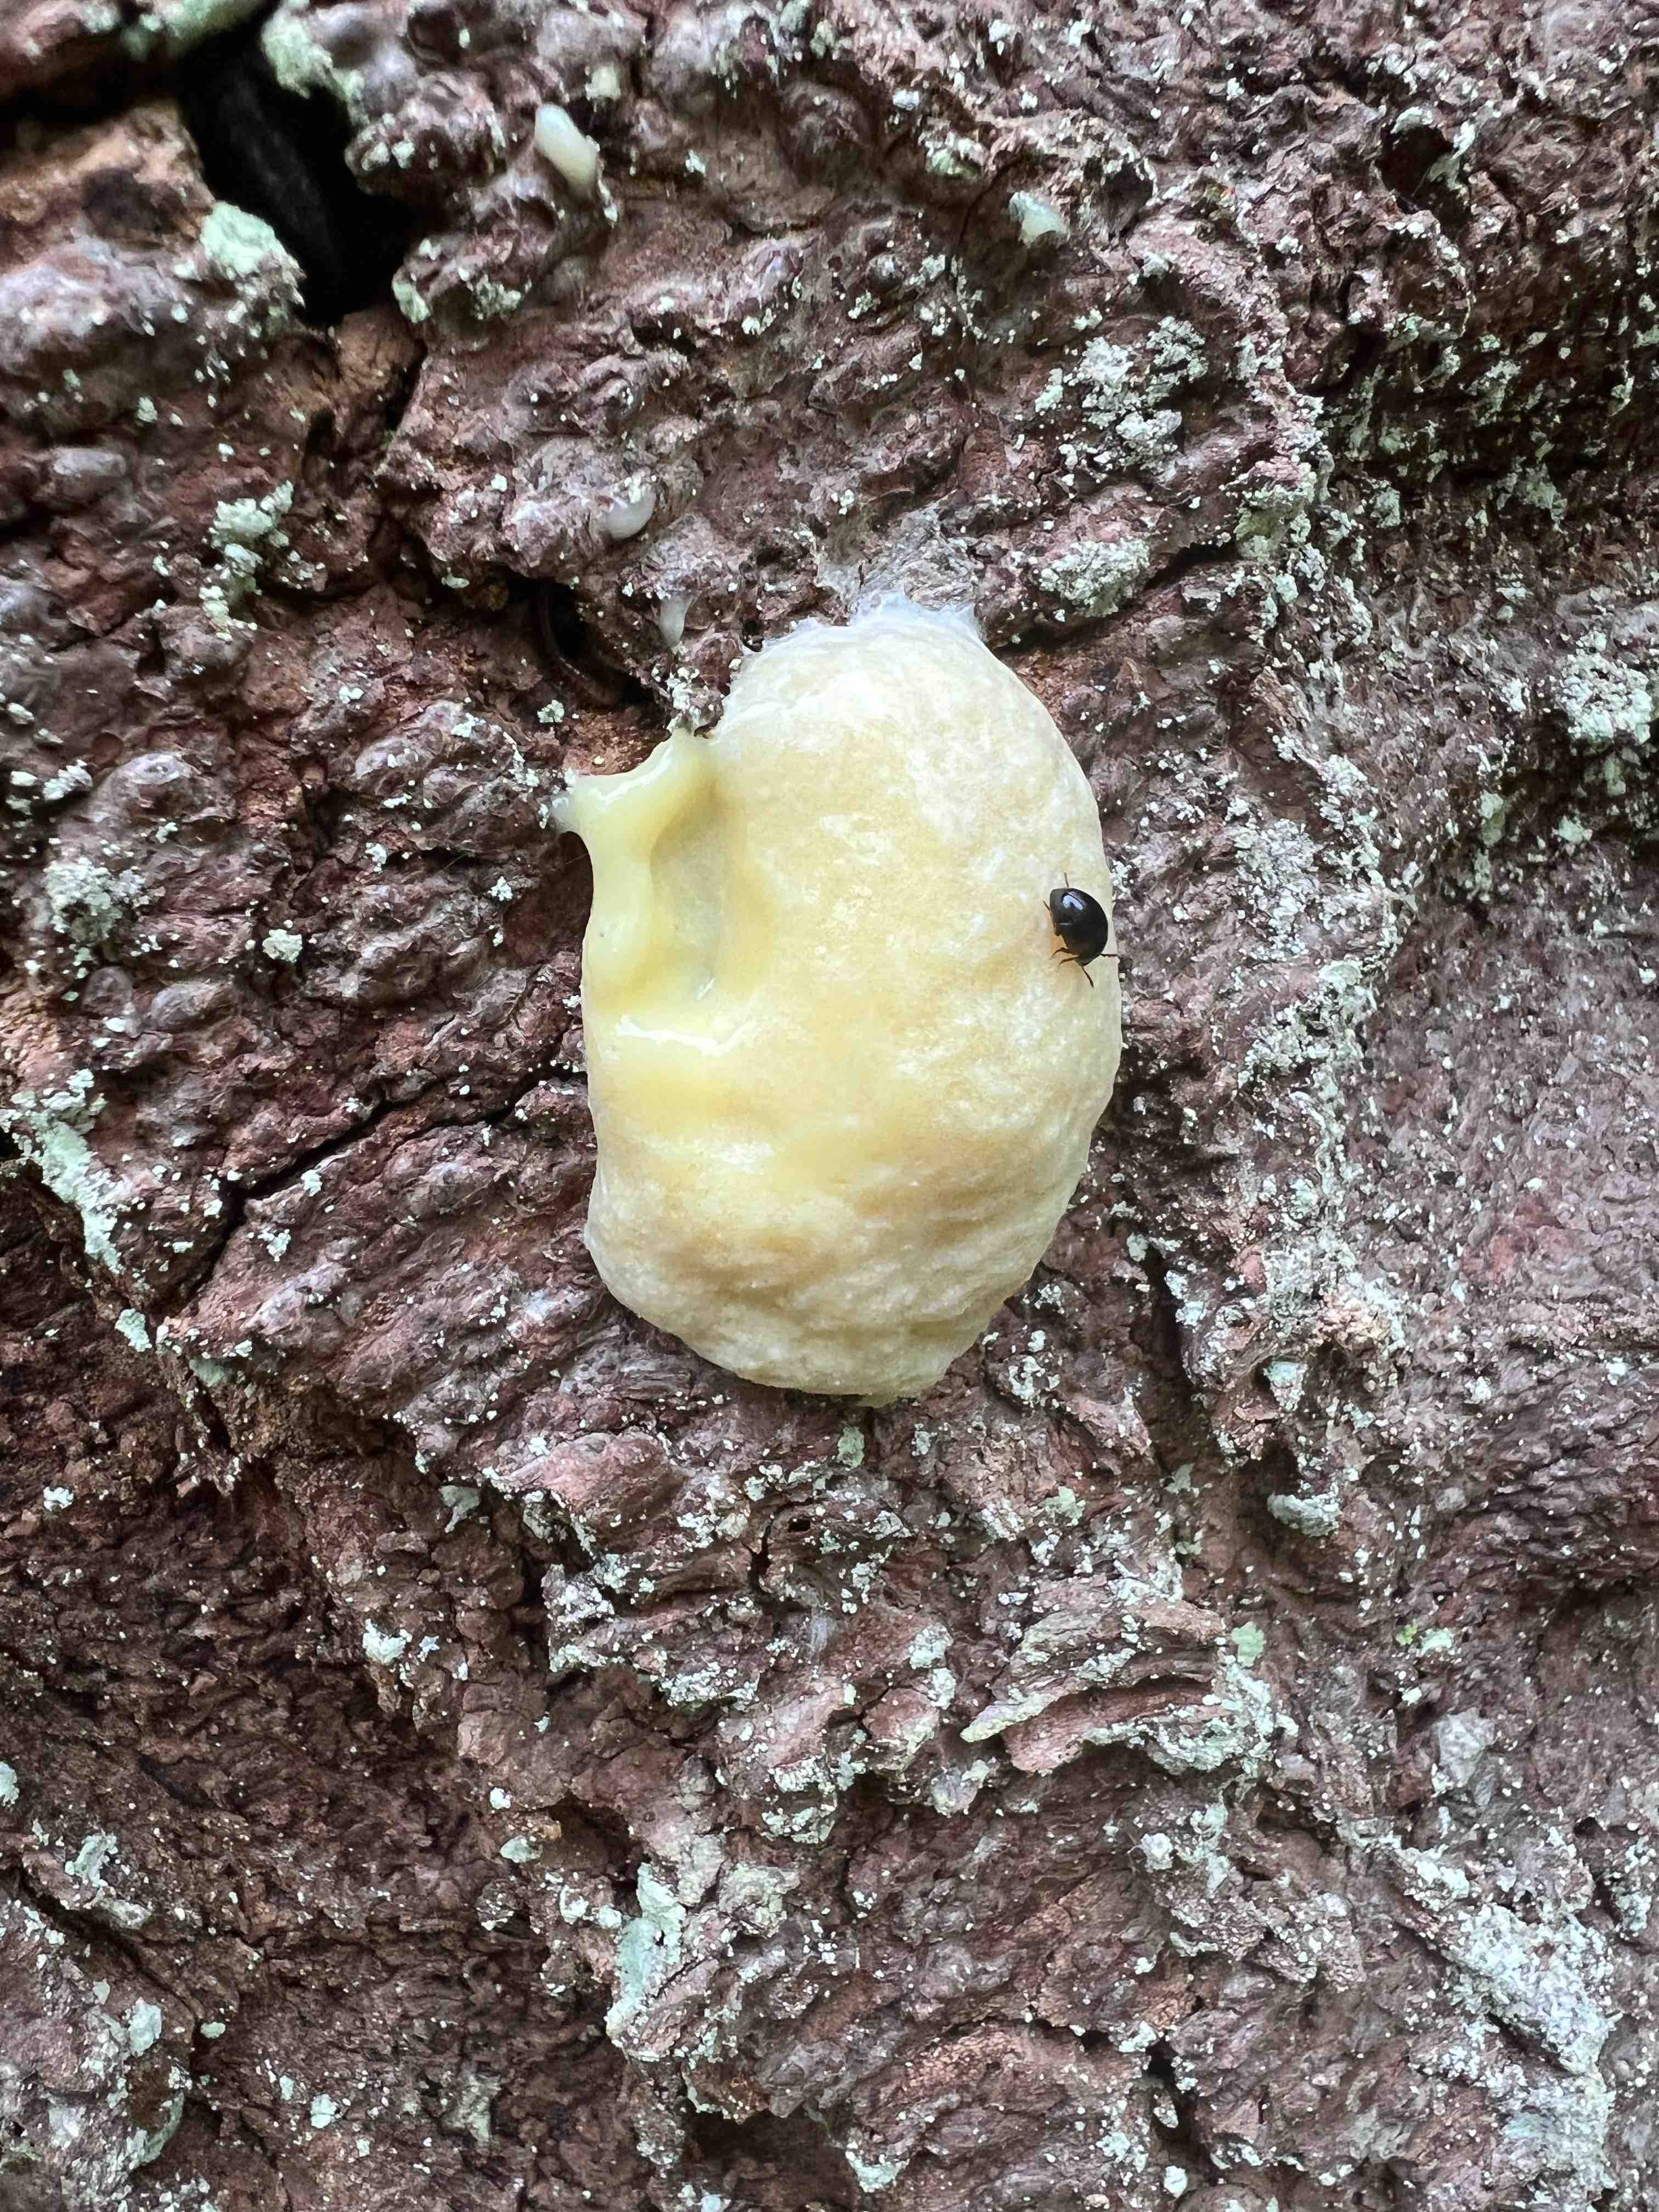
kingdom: Protozoa
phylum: Mycetozoa
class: Myxomycetes
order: Cribrariales
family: Tubiferaceae
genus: Reticularia
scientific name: Reticularia lycoperdon
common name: skinnende støvpude
